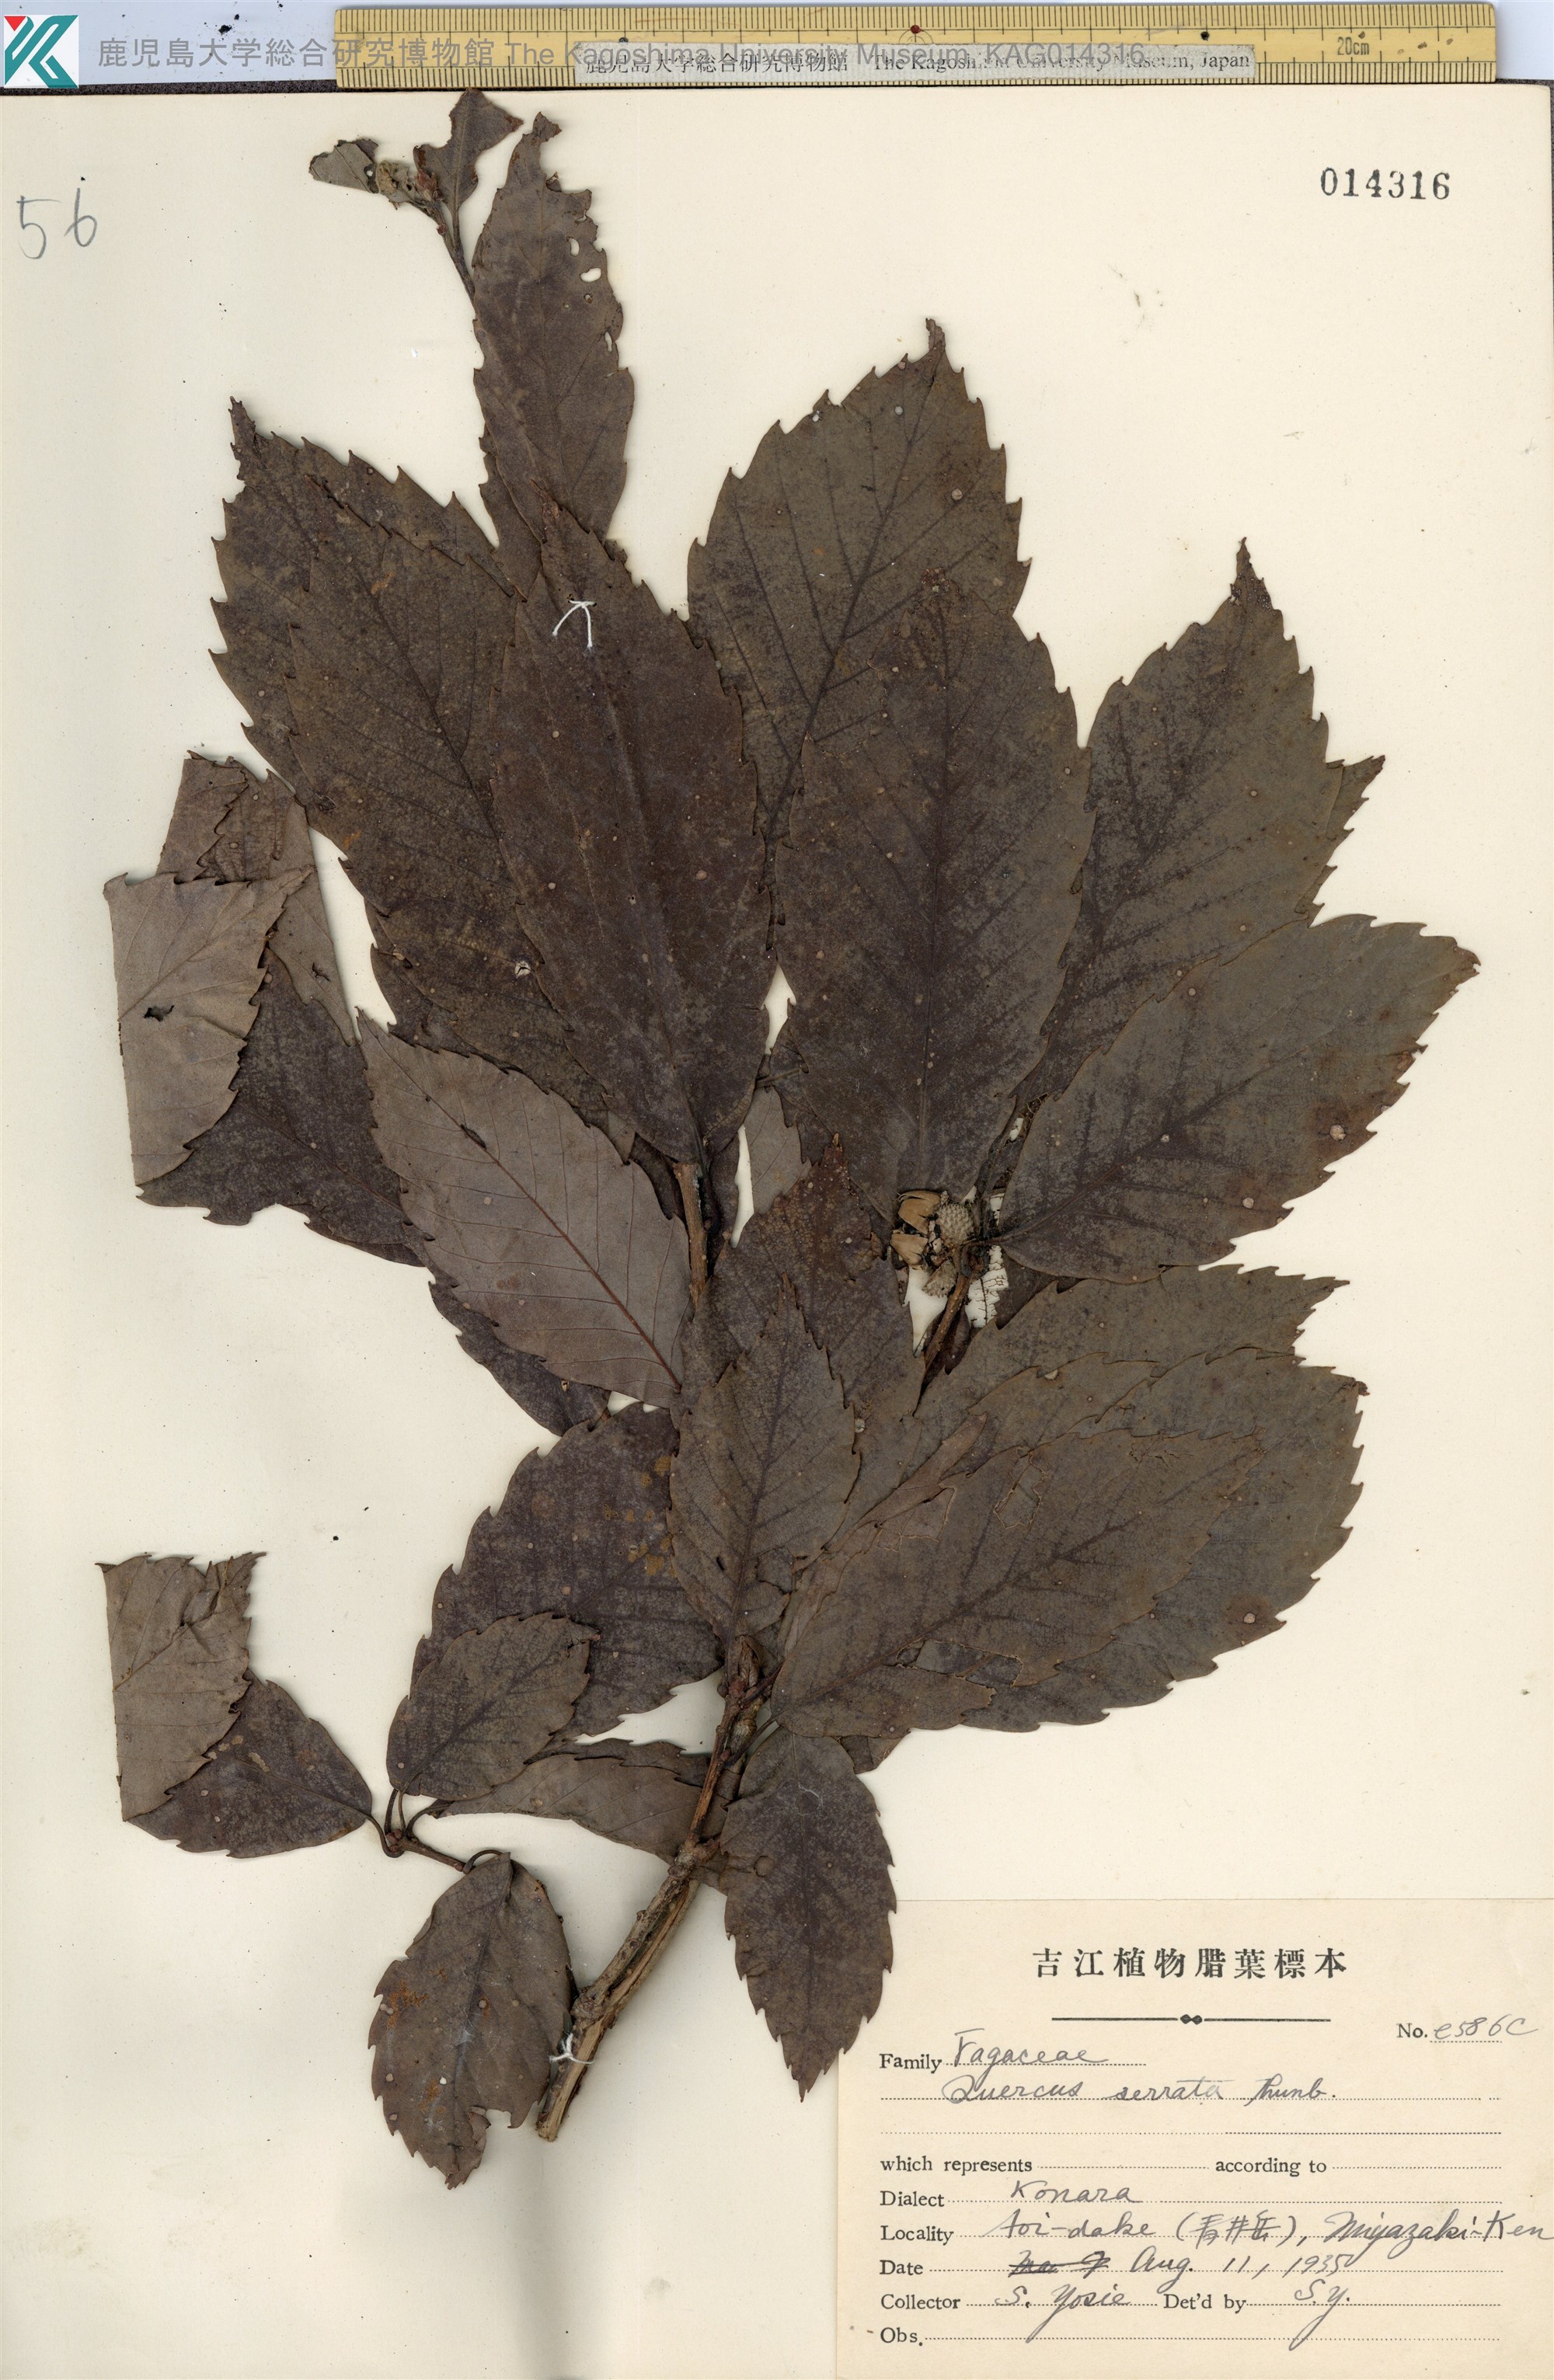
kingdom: Plantae
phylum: Tracheophyta
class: Magnoliopsida
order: Fagales
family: Fagaceae
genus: Quercus
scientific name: Quercus serrata
